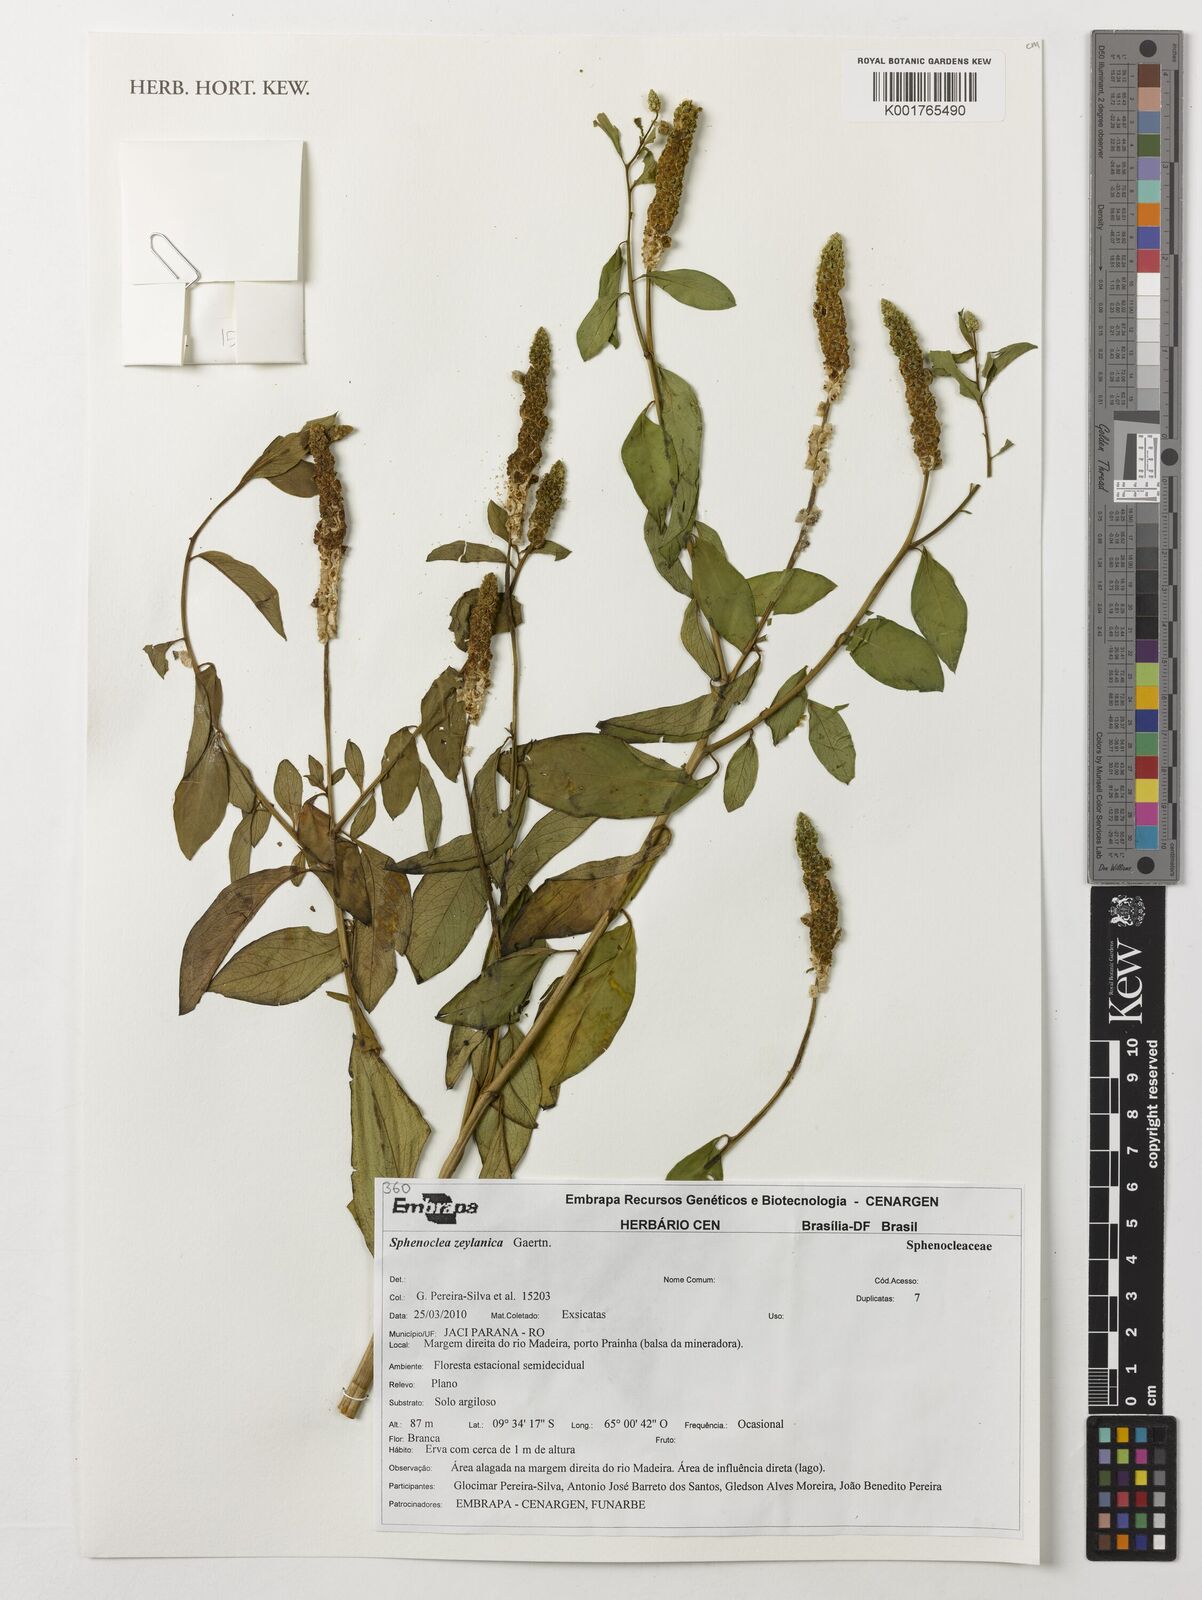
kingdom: Plantae
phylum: Tracheophyta
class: Magnoliopsida
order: Solanales
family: Sphenocleaceae
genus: Sphenoclea
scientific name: Sphenoclea zeylanica
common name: Chickenspike
